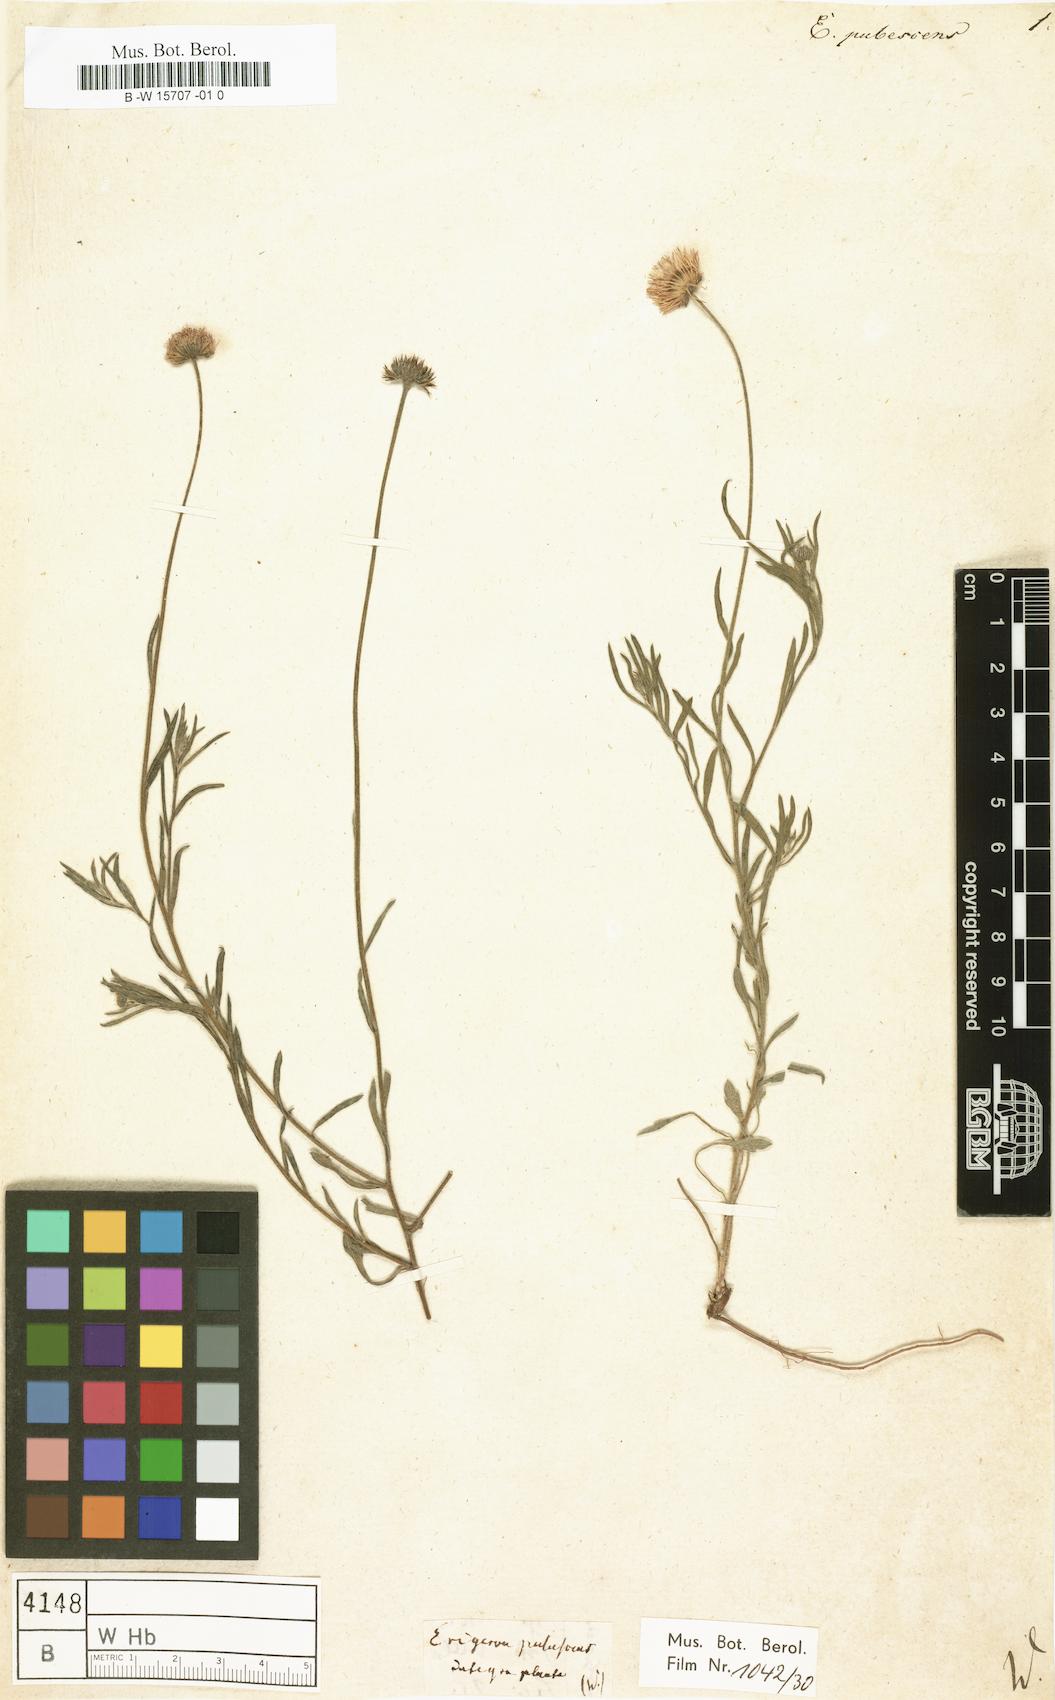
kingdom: Plantae
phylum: Tracheophyta
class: Magnoliopsida
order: Asterales
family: Asteraceae
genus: Erigeron
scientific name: Erigeron pubescens
